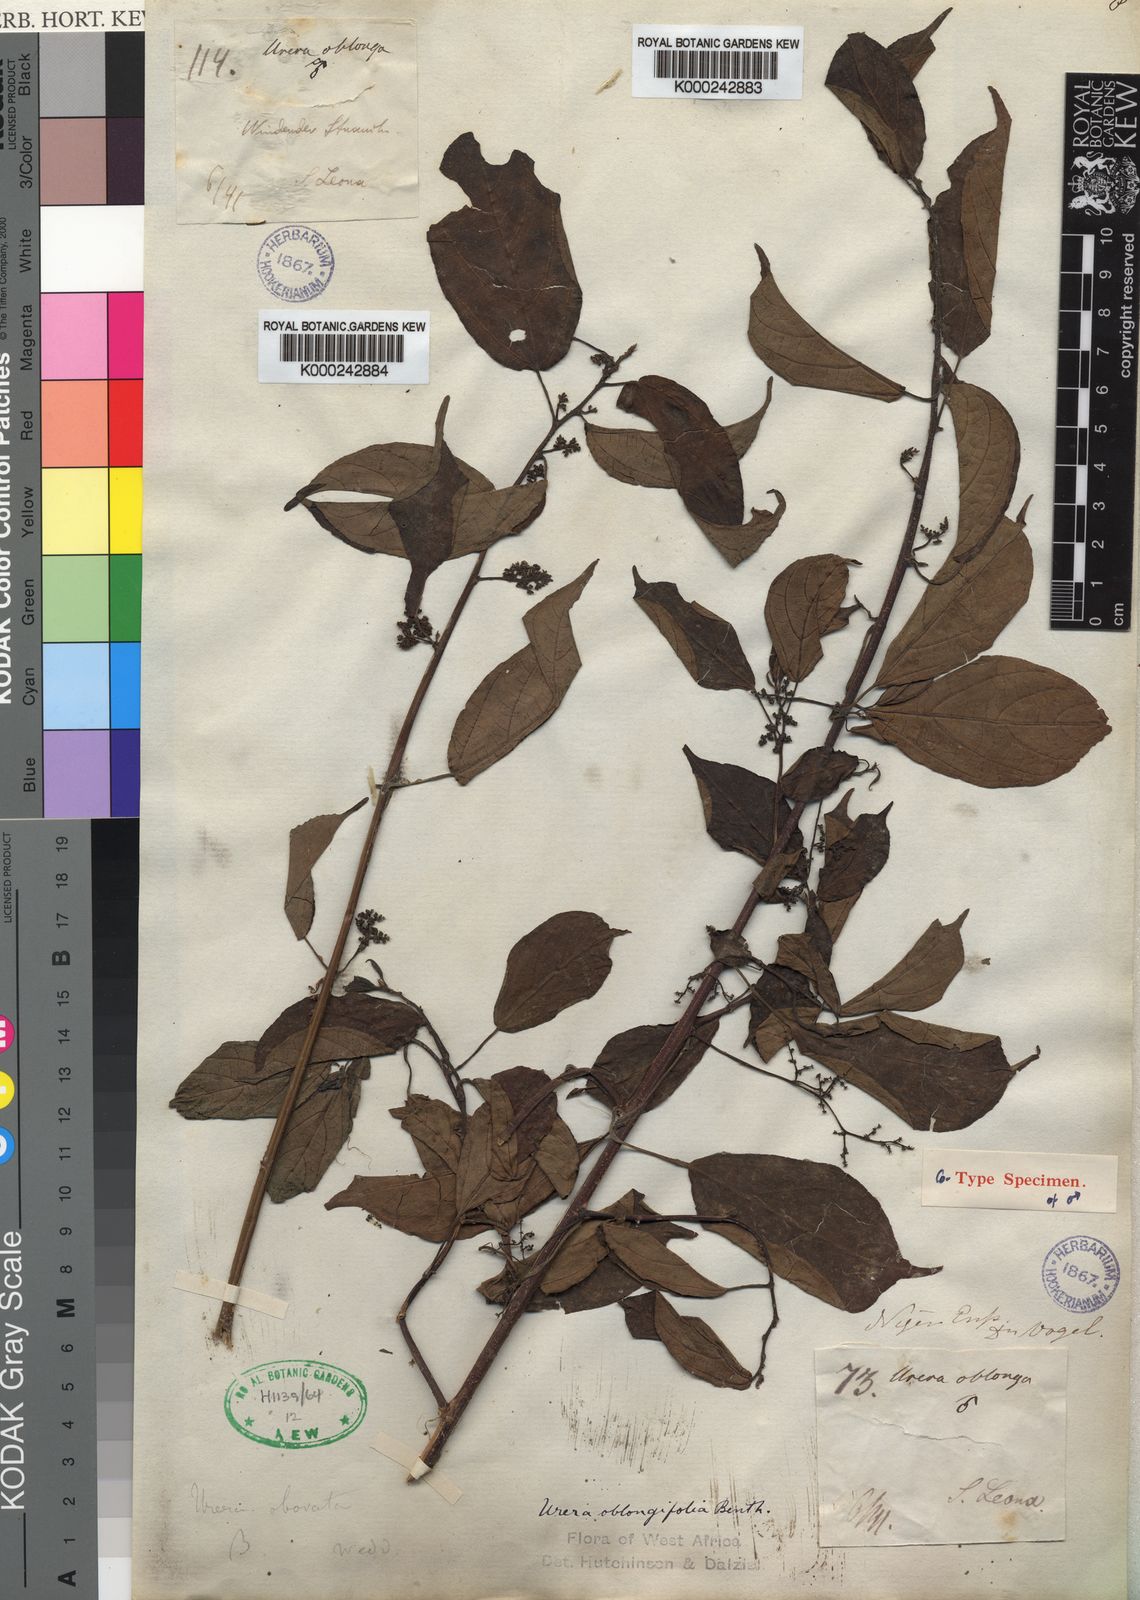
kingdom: Plantae
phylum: Tracheophyta
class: Magnoliopsida
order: Rosales
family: Urticaceae
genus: Scepocarpus
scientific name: Scepocarpus
